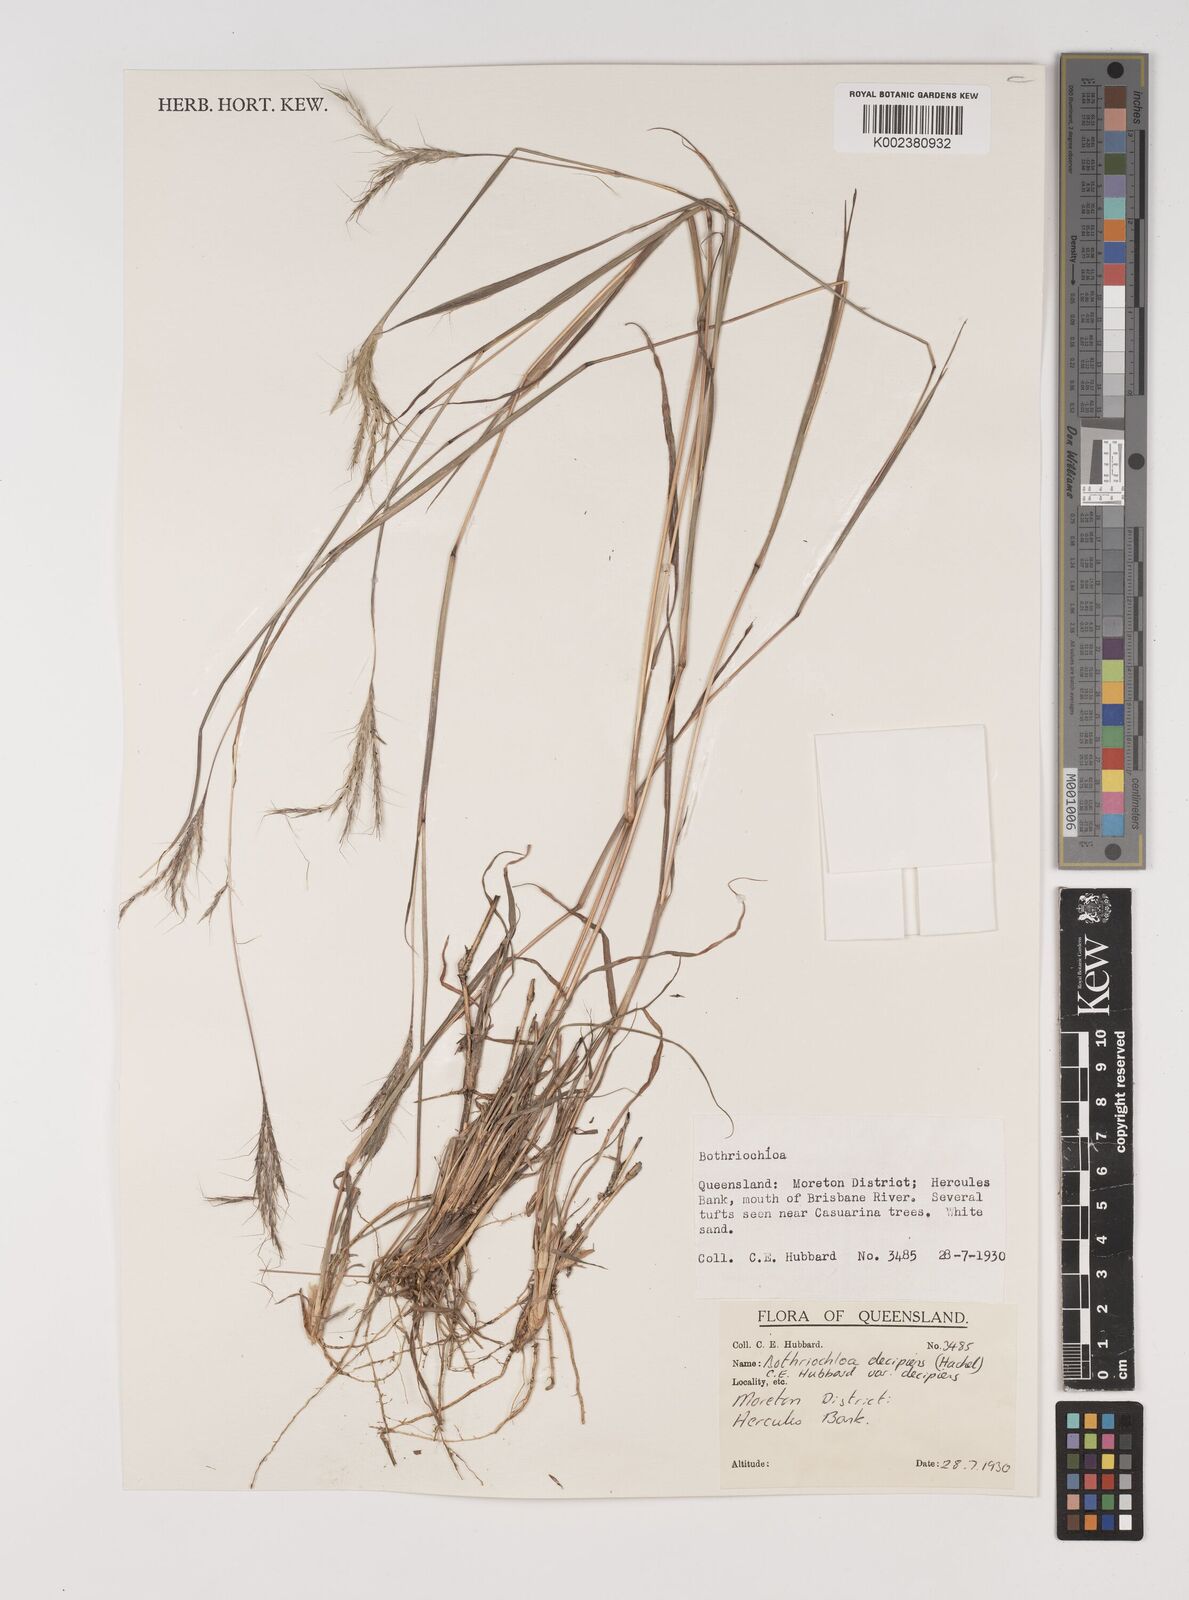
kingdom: Plantae
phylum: Tracheophyta
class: Liliopsida
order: Poales
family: Poaceae
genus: Bothriochloa
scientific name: Bothriochloa decipiens
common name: Pitted-bluegrass
